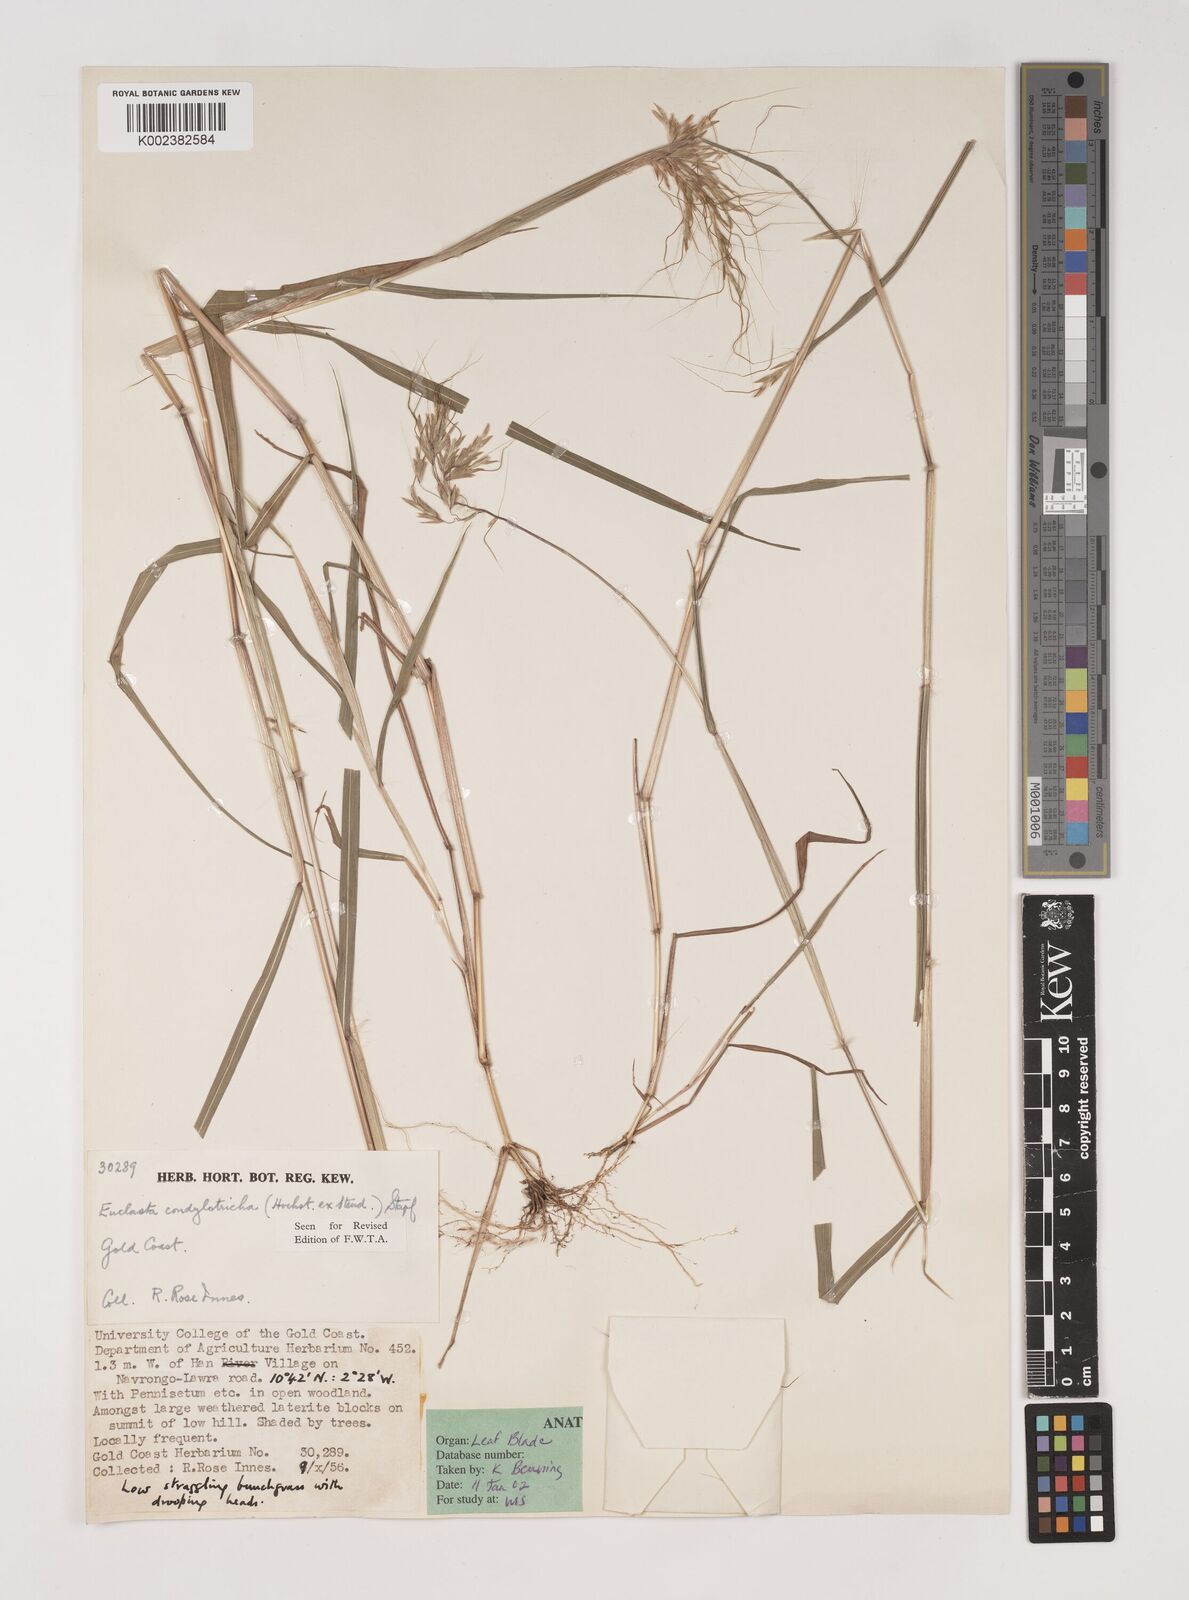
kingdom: Plantae
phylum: Tracheophyta
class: Liliopsida
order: Poales
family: Poaceae
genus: Euclasta
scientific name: Euclasta condylotricha
